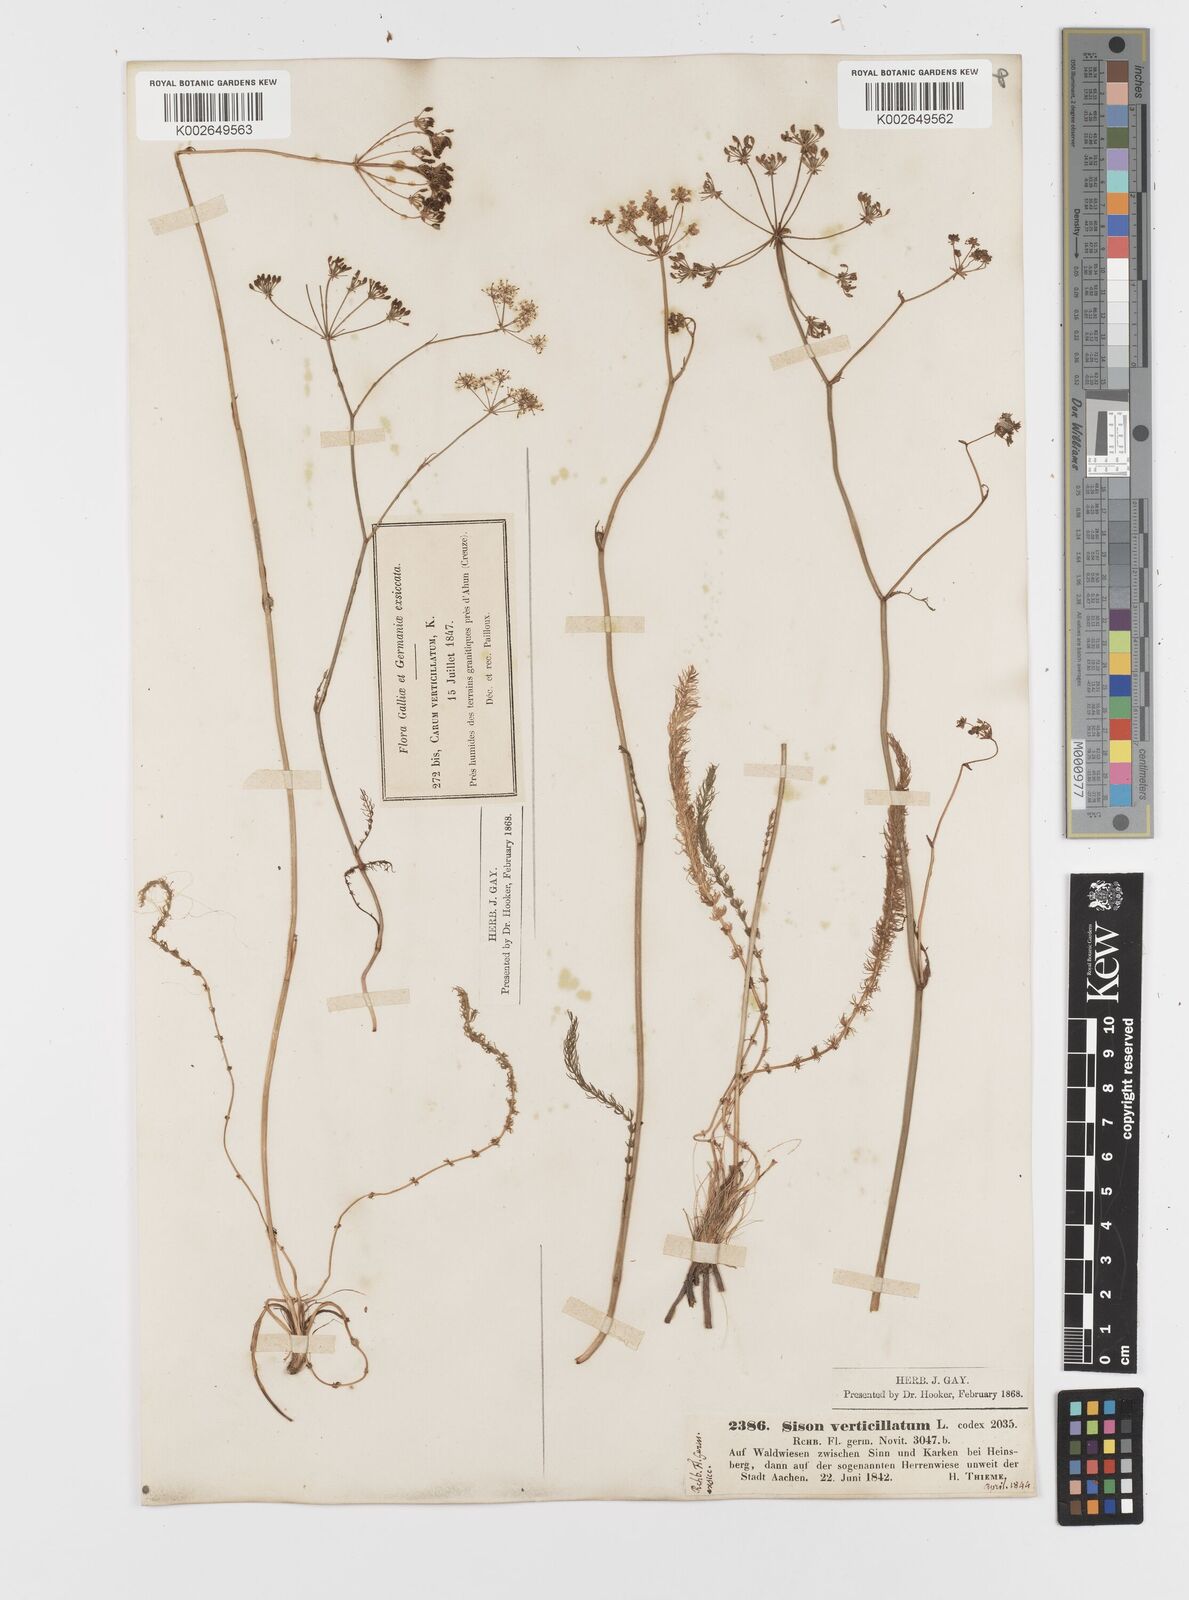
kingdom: Plantae
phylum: Tracheophyta
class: Magnoliopsida
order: Apiales
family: Apiaceae
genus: Trocdaris
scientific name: Trocdaris verticillatum
